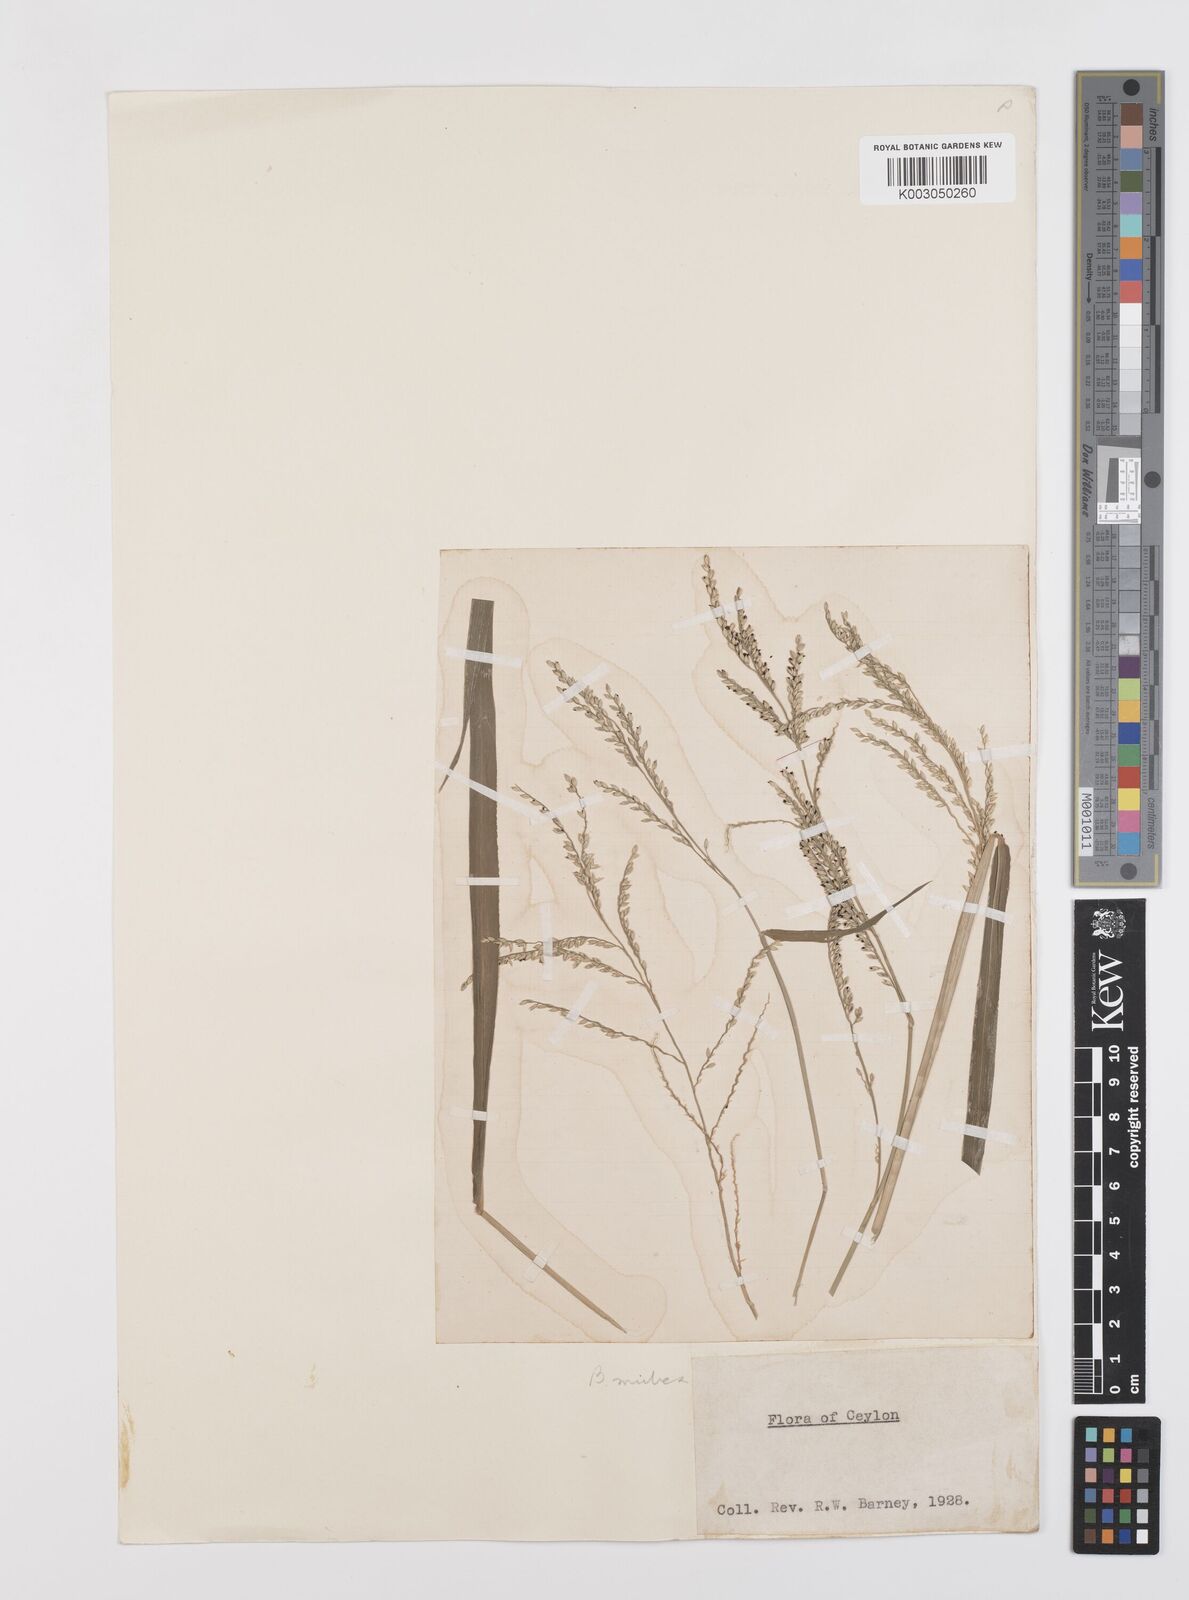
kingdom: Plantae
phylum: Tracheophyta
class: Liliopsida
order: Poales
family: Poaceae
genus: Urochloa
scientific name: Urochloa mutica
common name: Para grass
